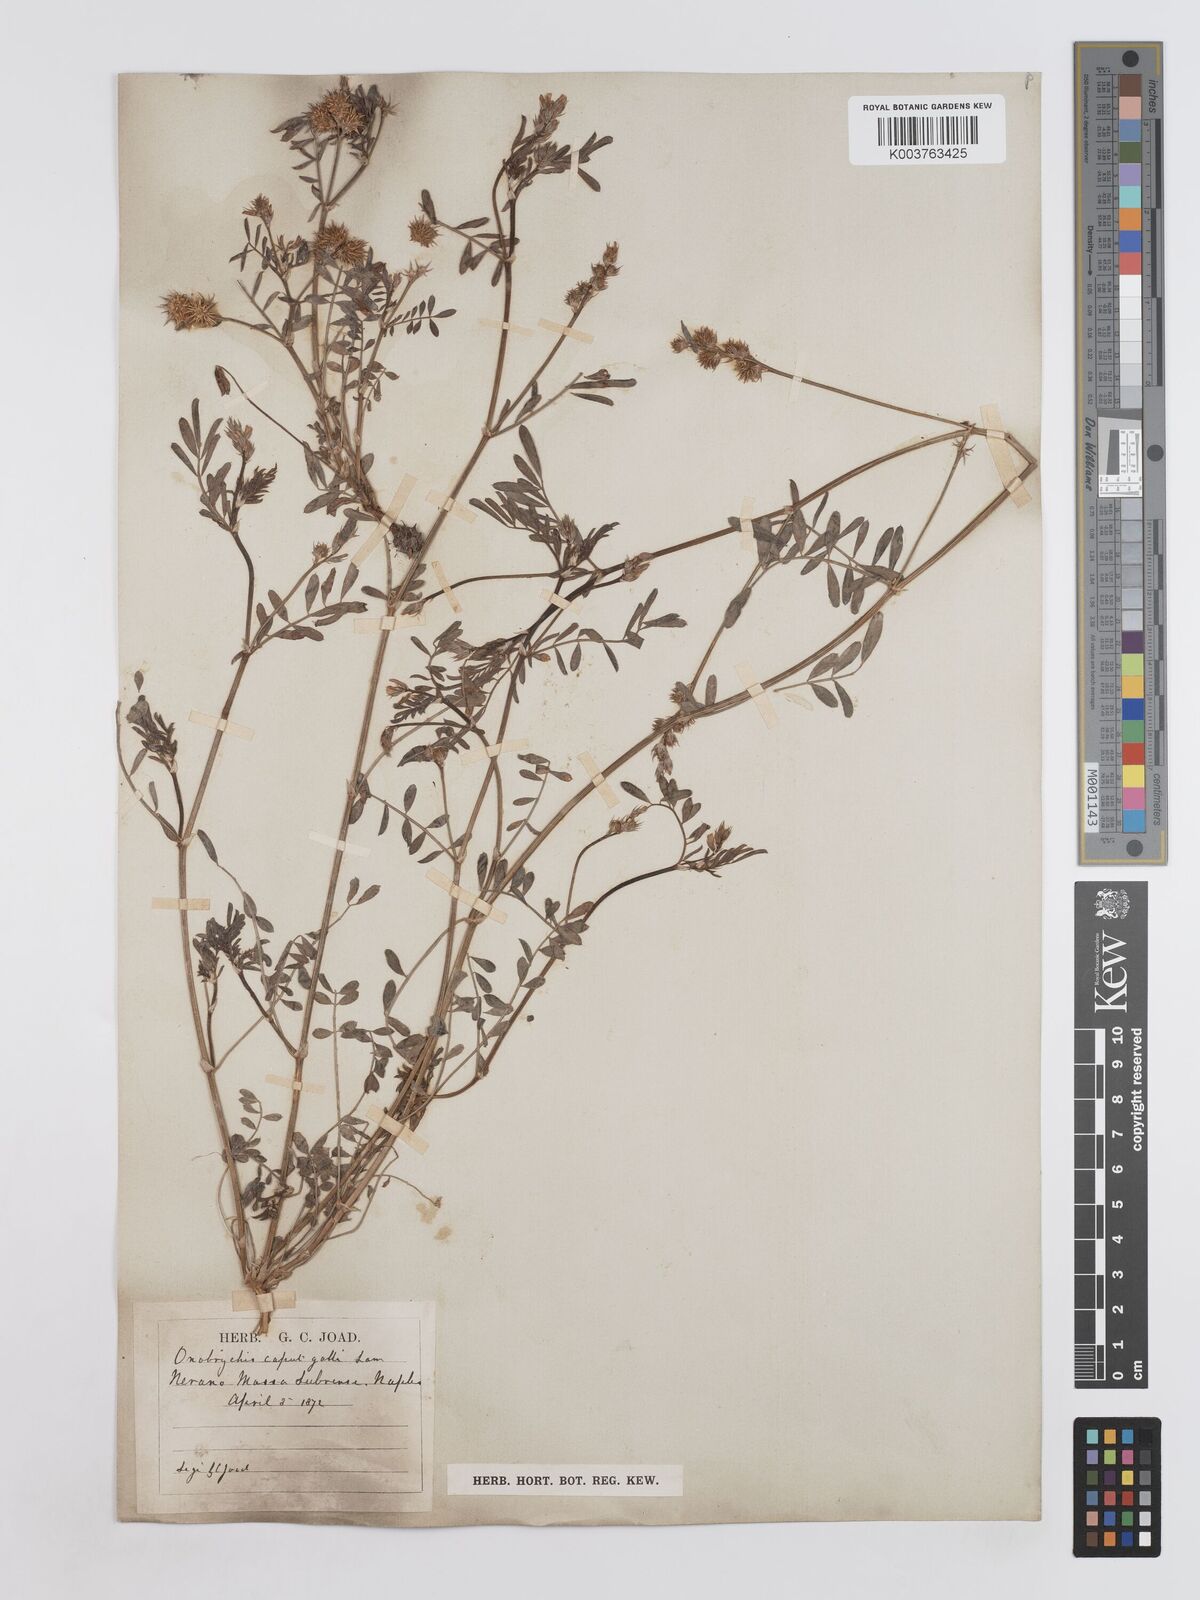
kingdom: Plantae
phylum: Tracheophyta
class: Magnoliopsida
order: Fabales
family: Fabaceae
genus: Onobrychis
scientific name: Onobrychis caput-galli
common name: Cockscomb sainfoin
